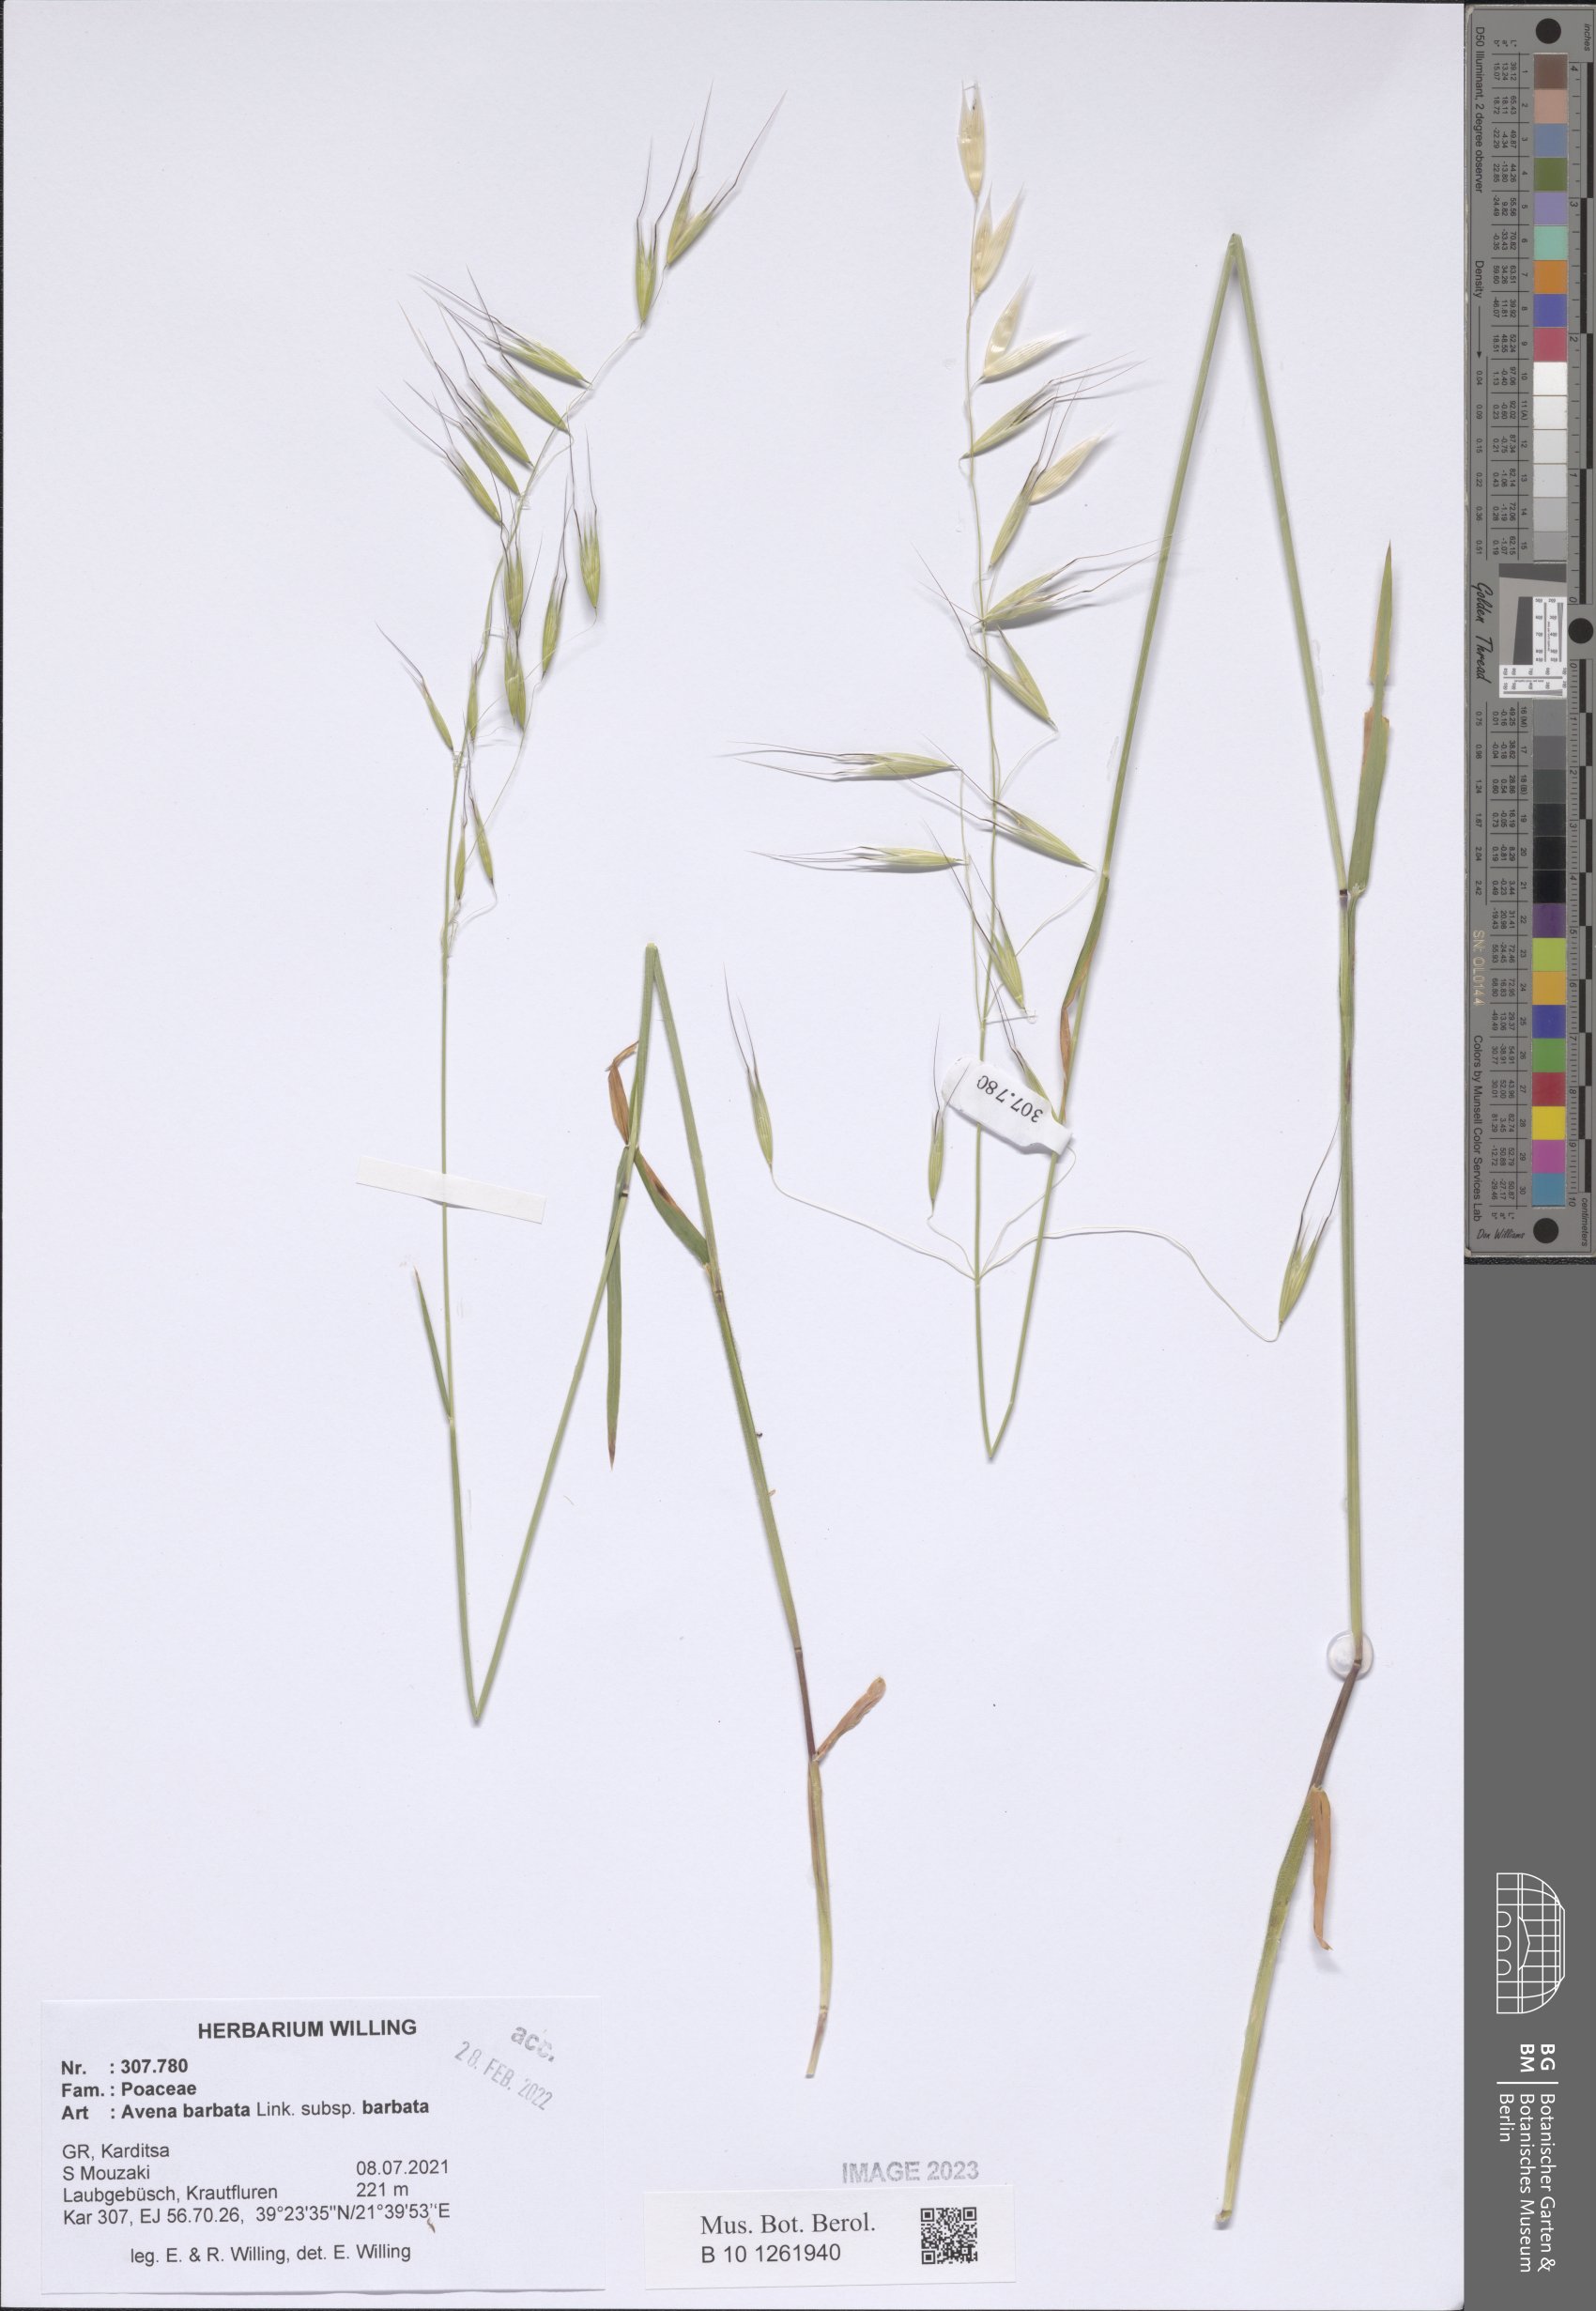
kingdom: Plantae
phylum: Tracheophyta
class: Liliopsida
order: Poales
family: Poaceae
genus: Avena
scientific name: Avena barbata
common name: Slender oat
